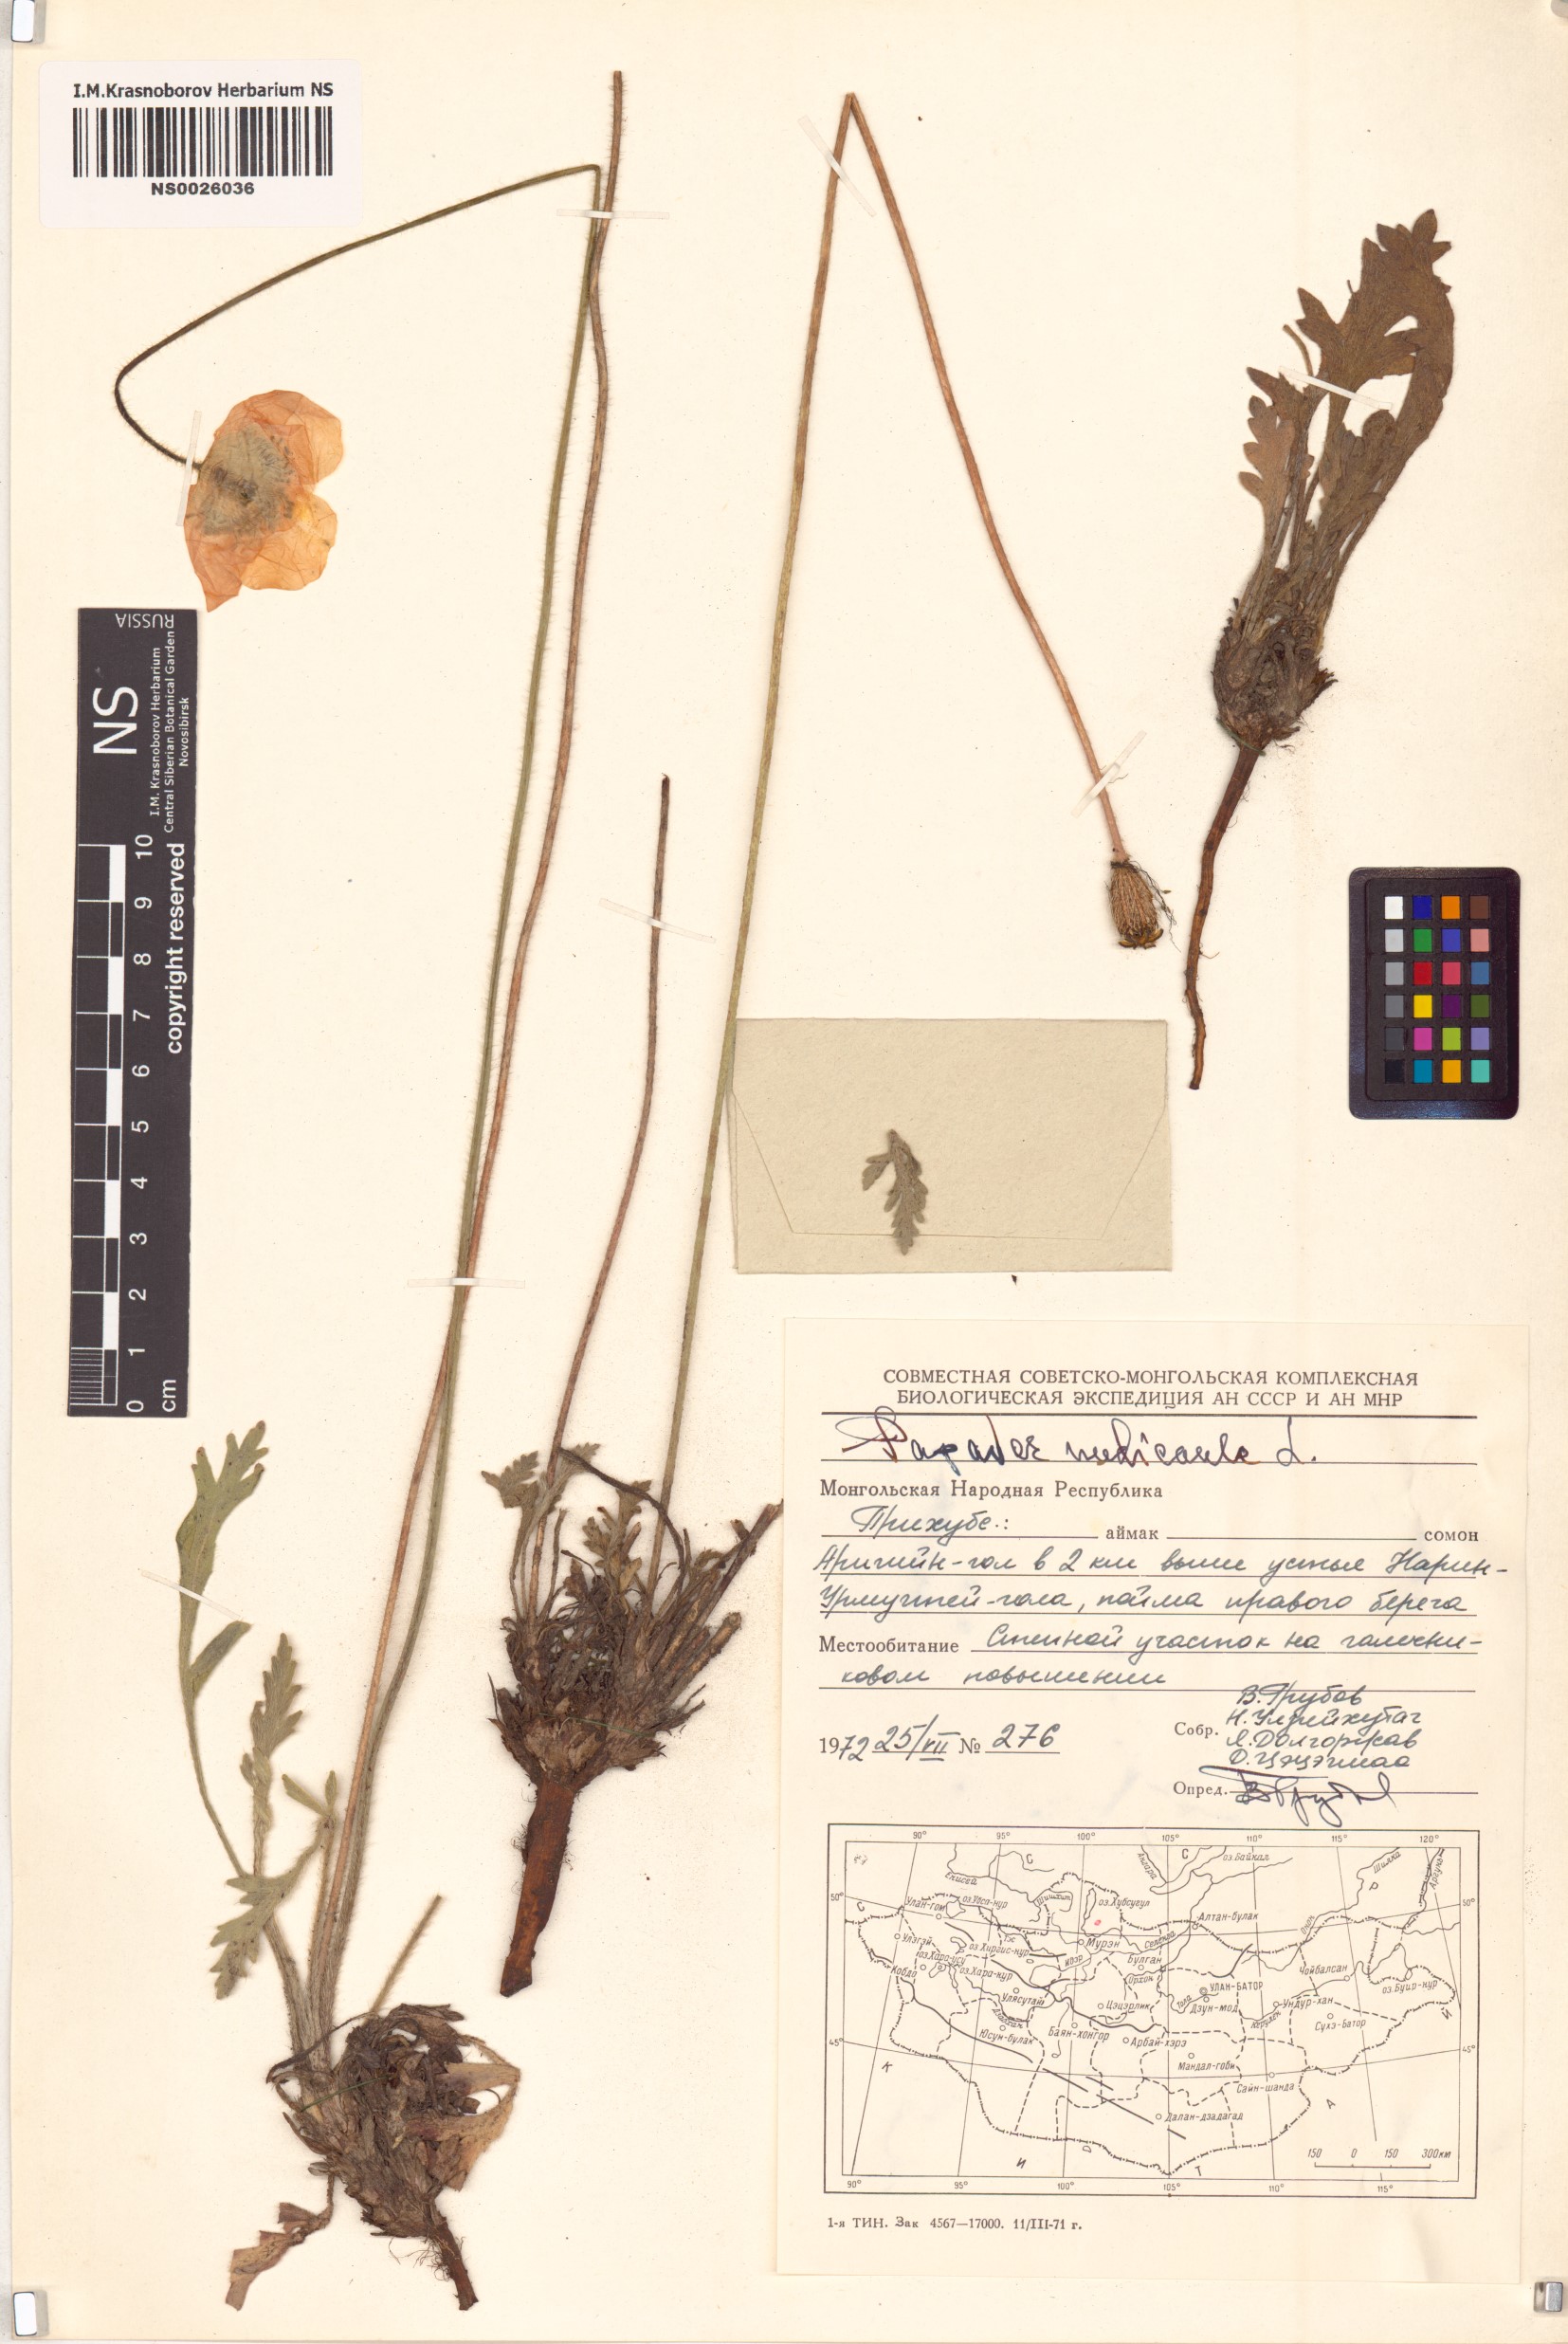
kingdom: Plantae
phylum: Tracheophyta
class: Magnoliopsida
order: Ranunculales
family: Papaveraceae
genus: Papaver
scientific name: Papaver nudicaule
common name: Arctic poppy
